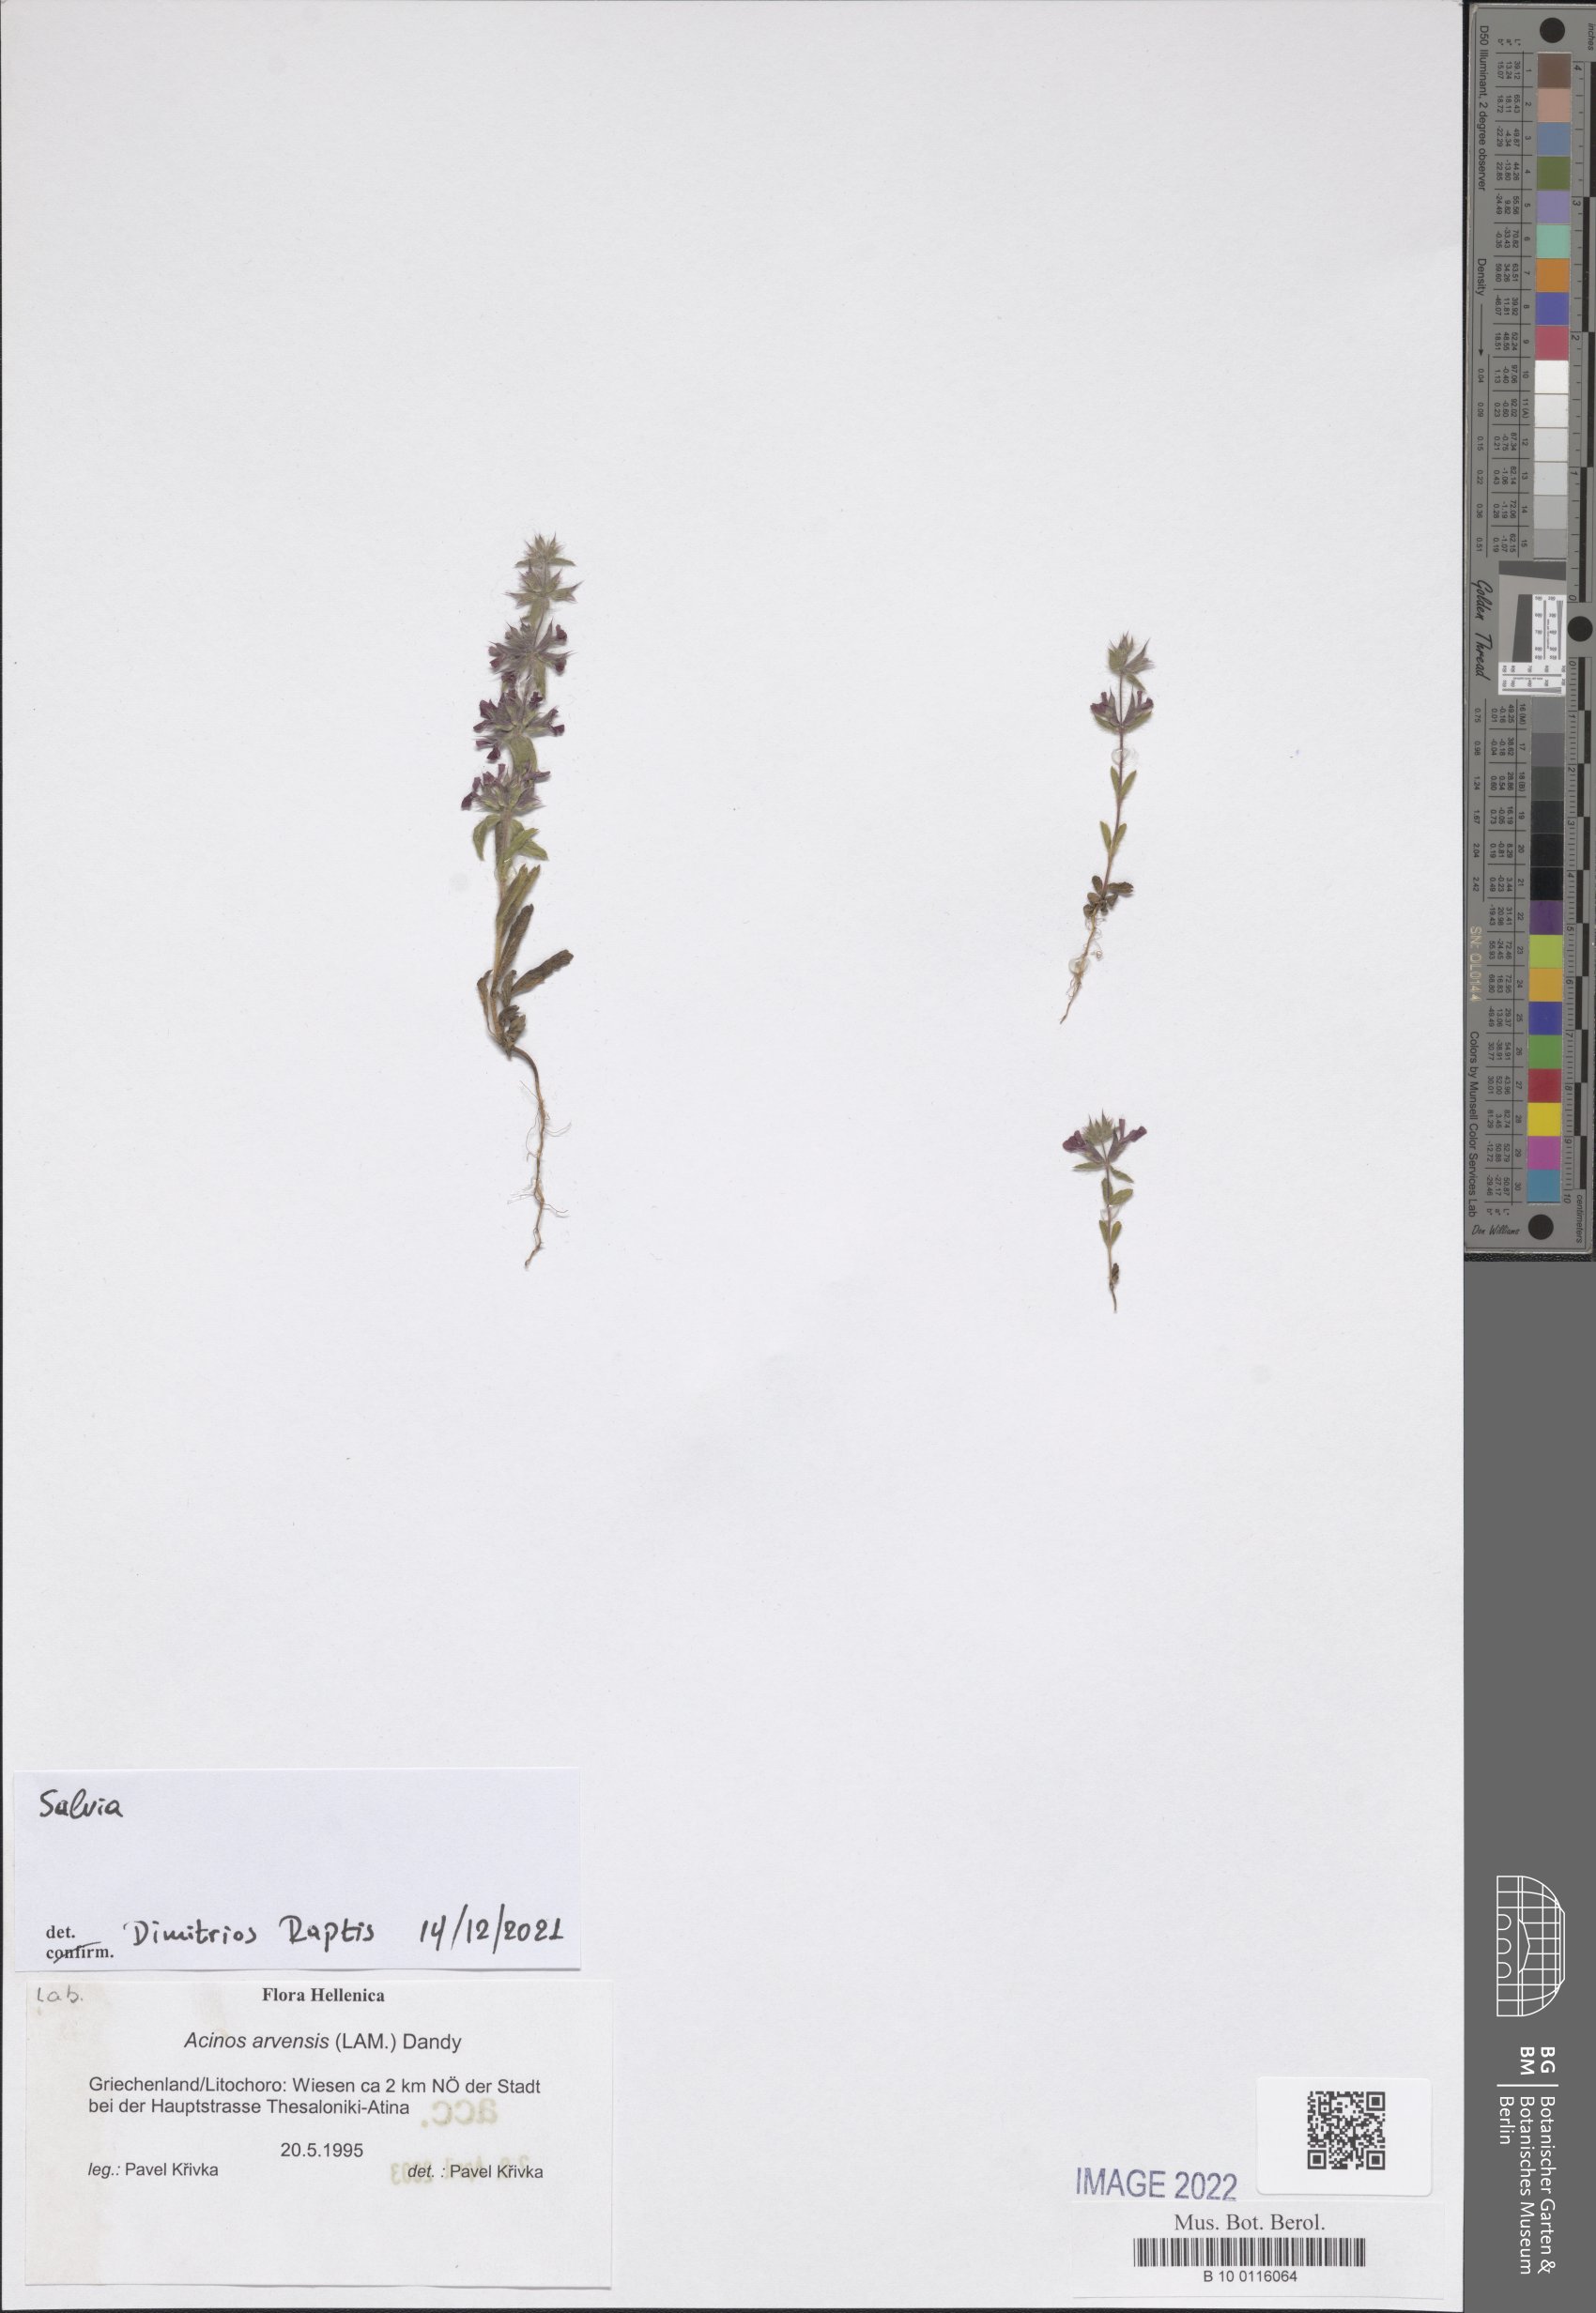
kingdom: Plantae
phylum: Tracheophyta
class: Magnoliopsida
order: Lamiales
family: Lamiaceae
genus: Salvia
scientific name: Salvia
